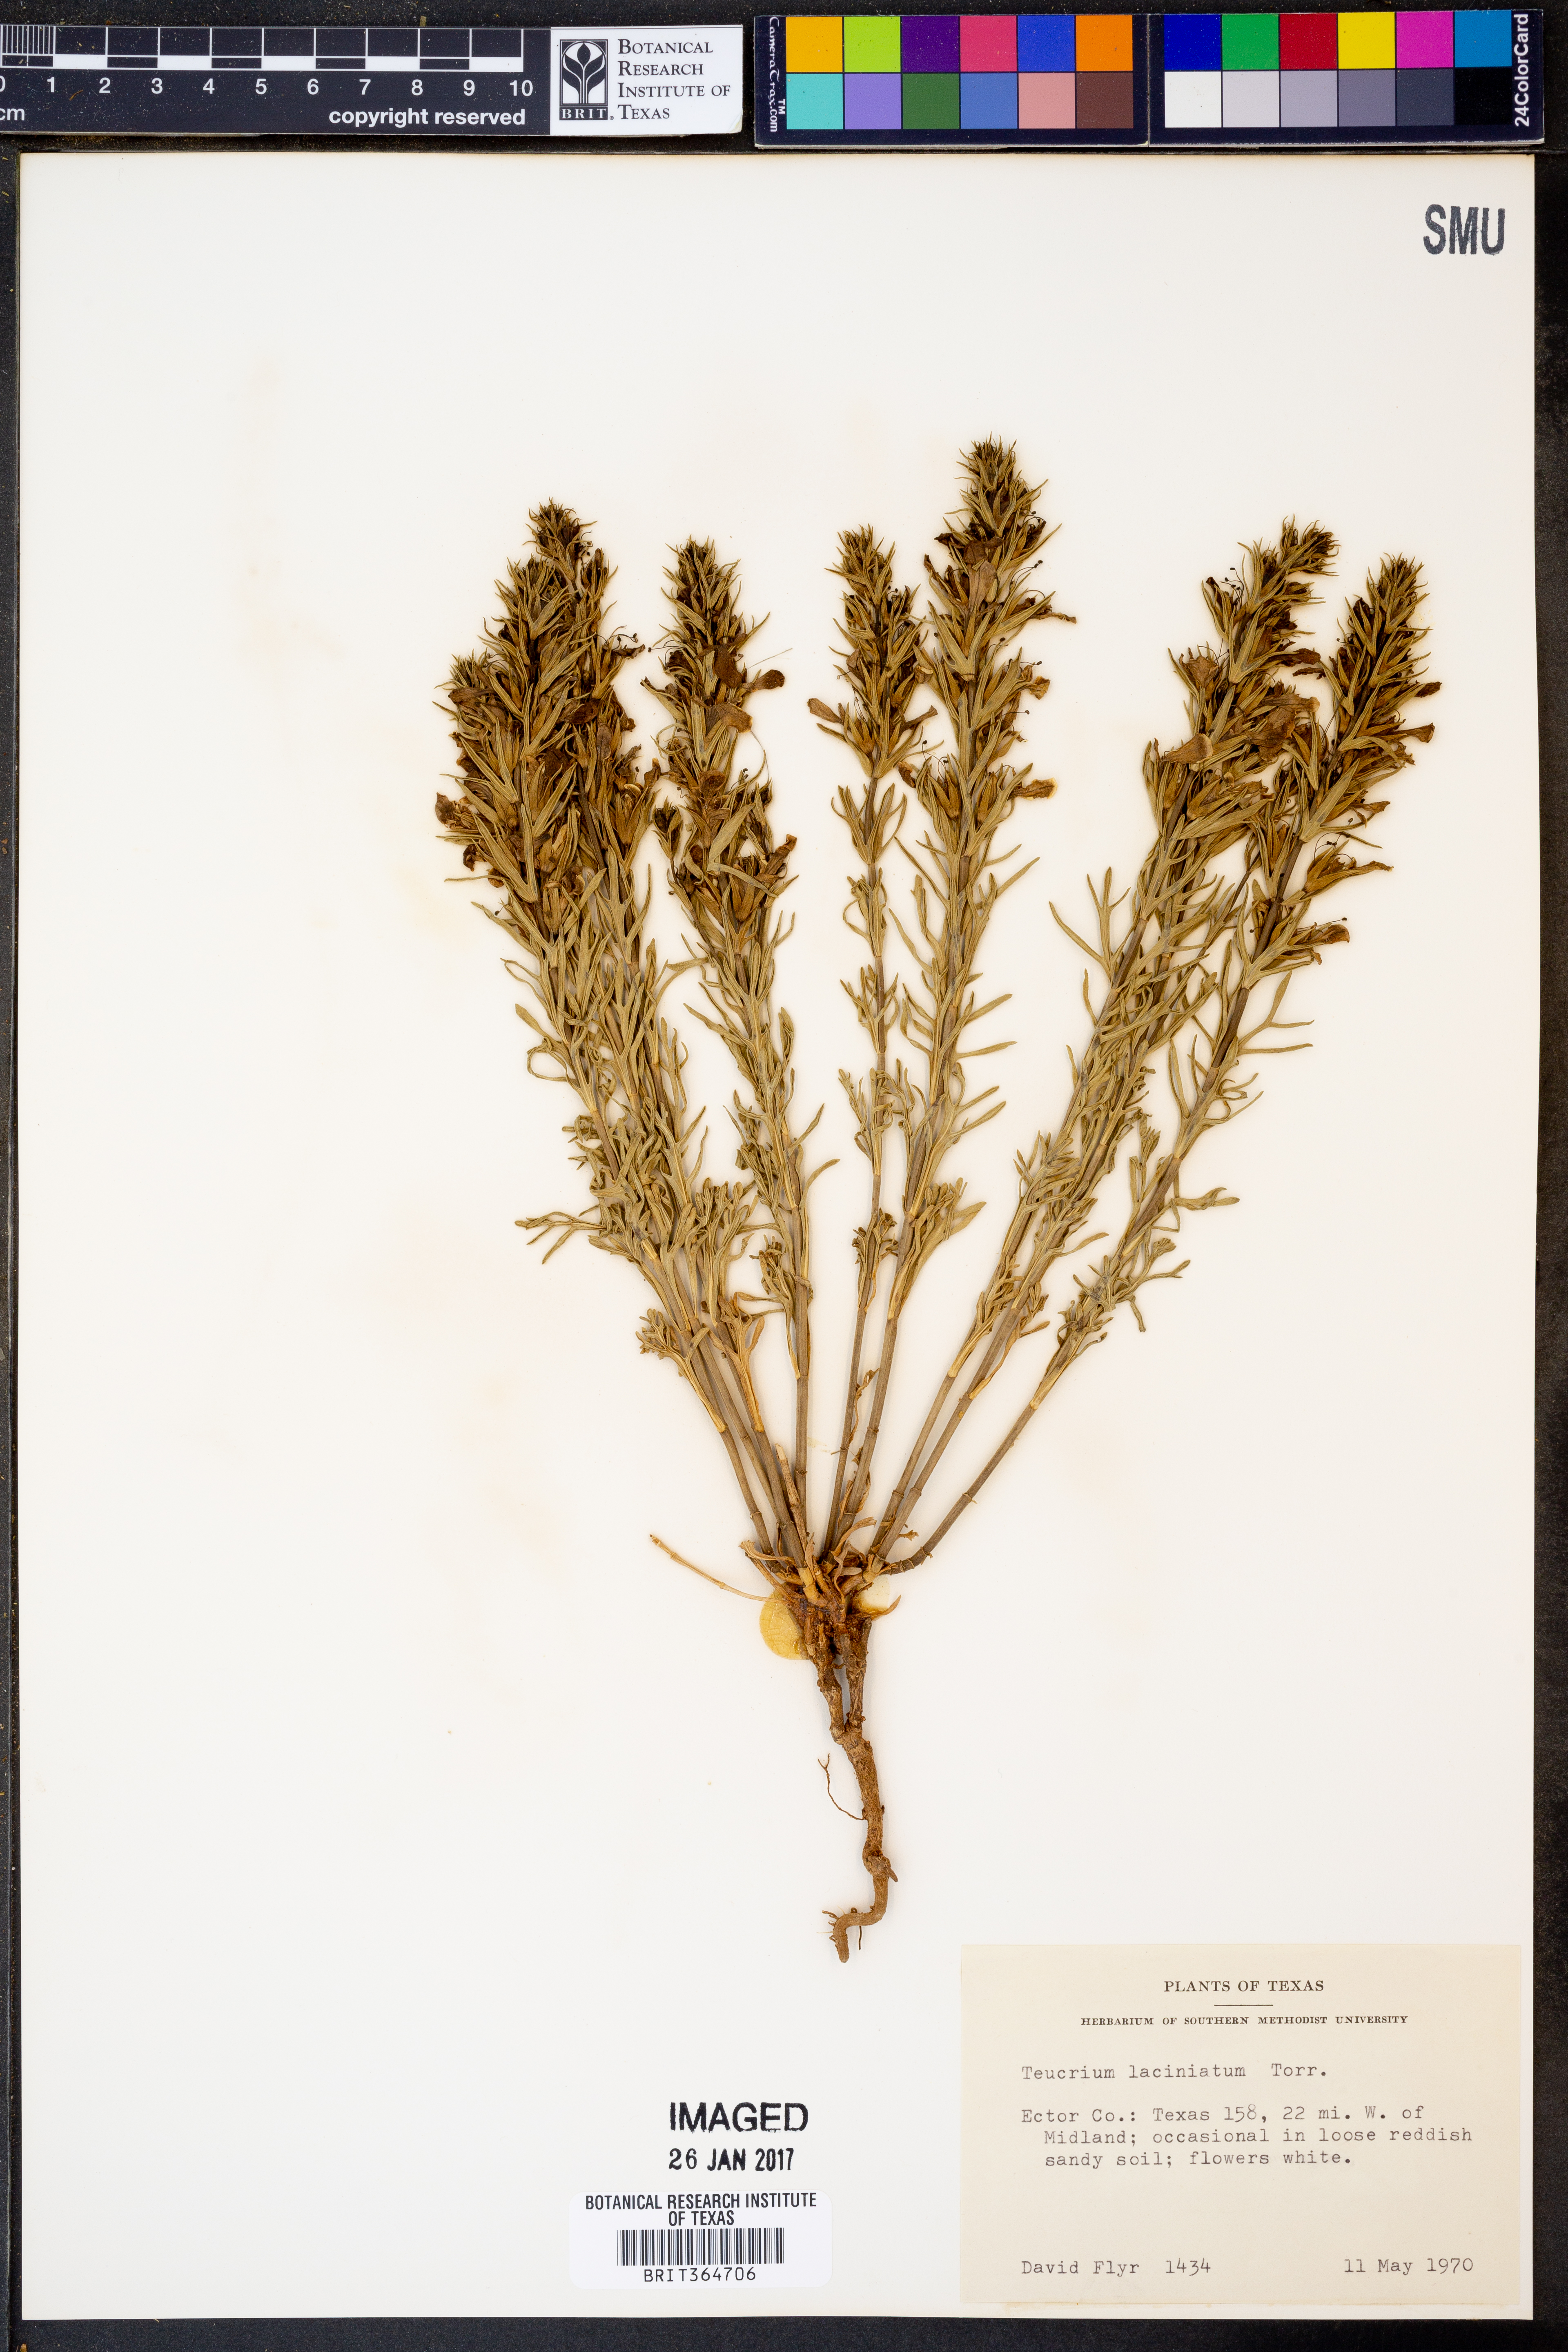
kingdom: Plantae
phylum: Tracheophyta
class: Magnoliopsida
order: Lamiales
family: Lamiaceae
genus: Teucrium
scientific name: Teucrium laciniatum
